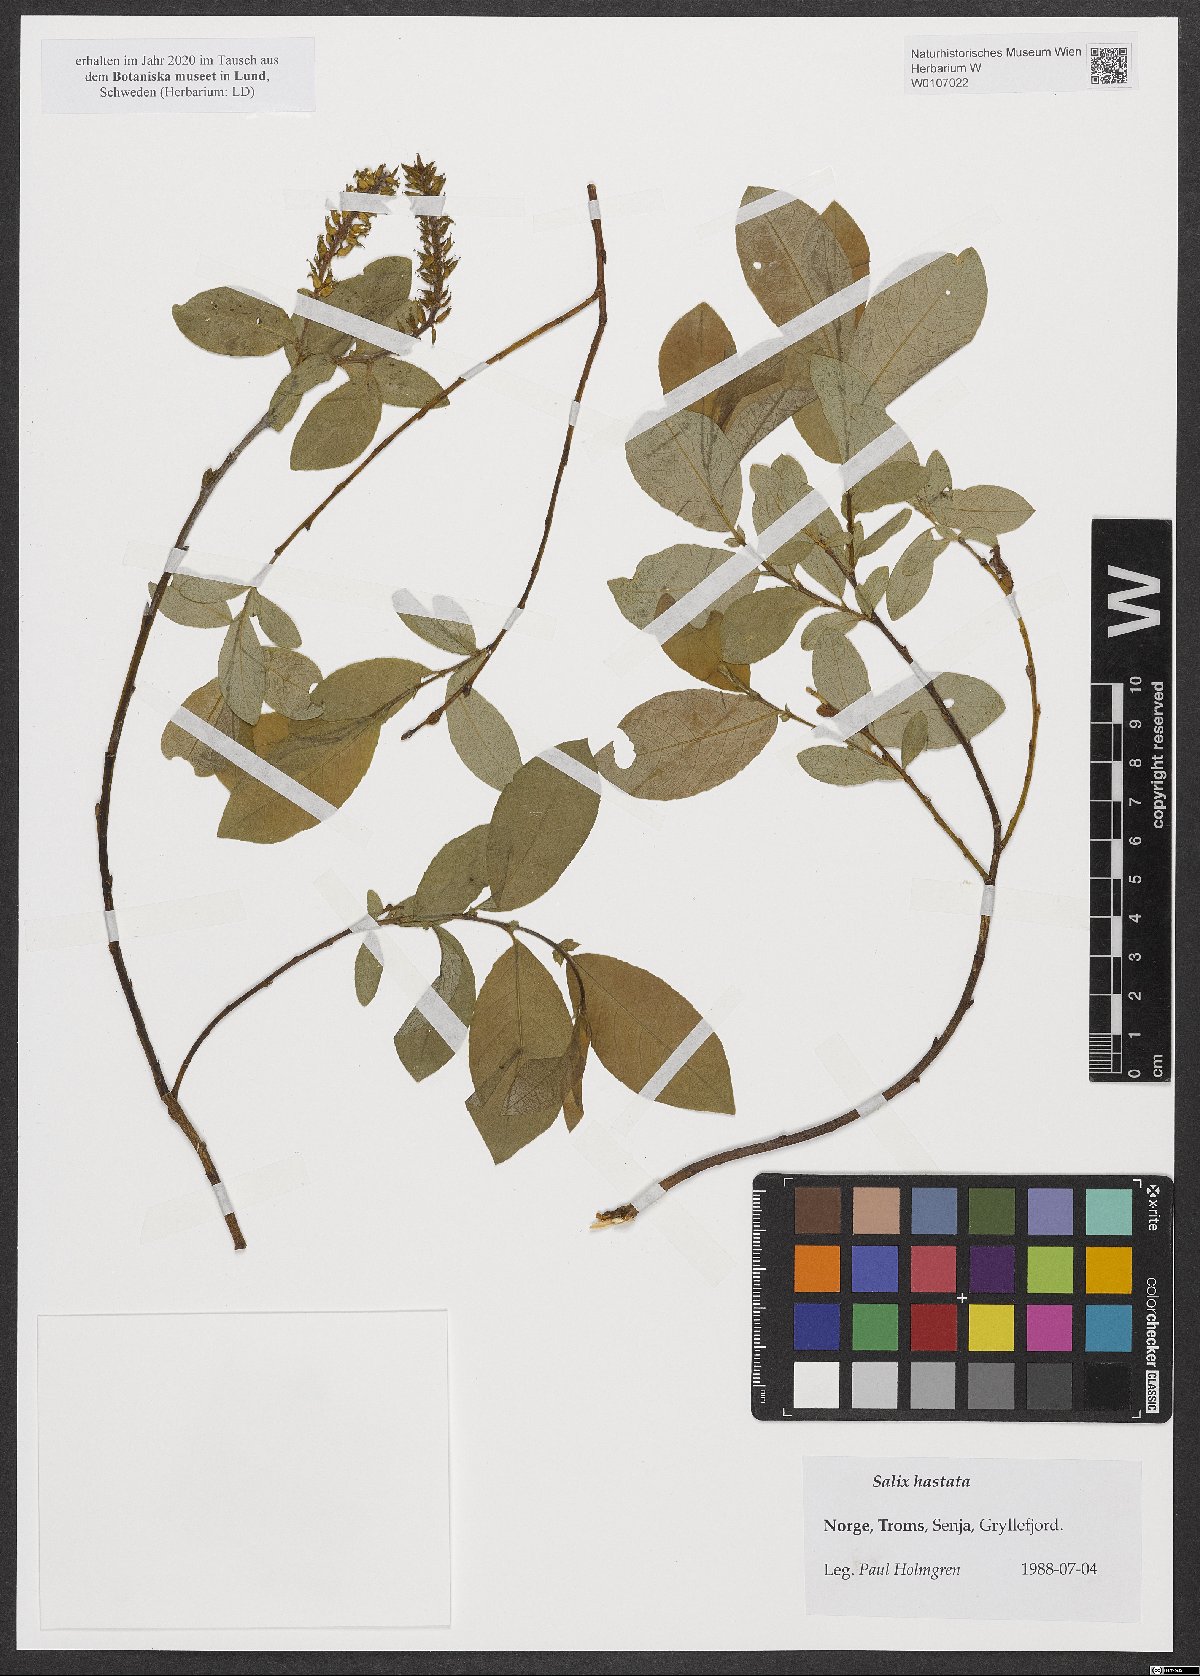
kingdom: Plantae
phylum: Tracheophyta
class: Magnoliopsida
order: Malpighiales
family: Salicaceae
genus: Salix
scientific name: Salix hastata
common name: Halberd willow
